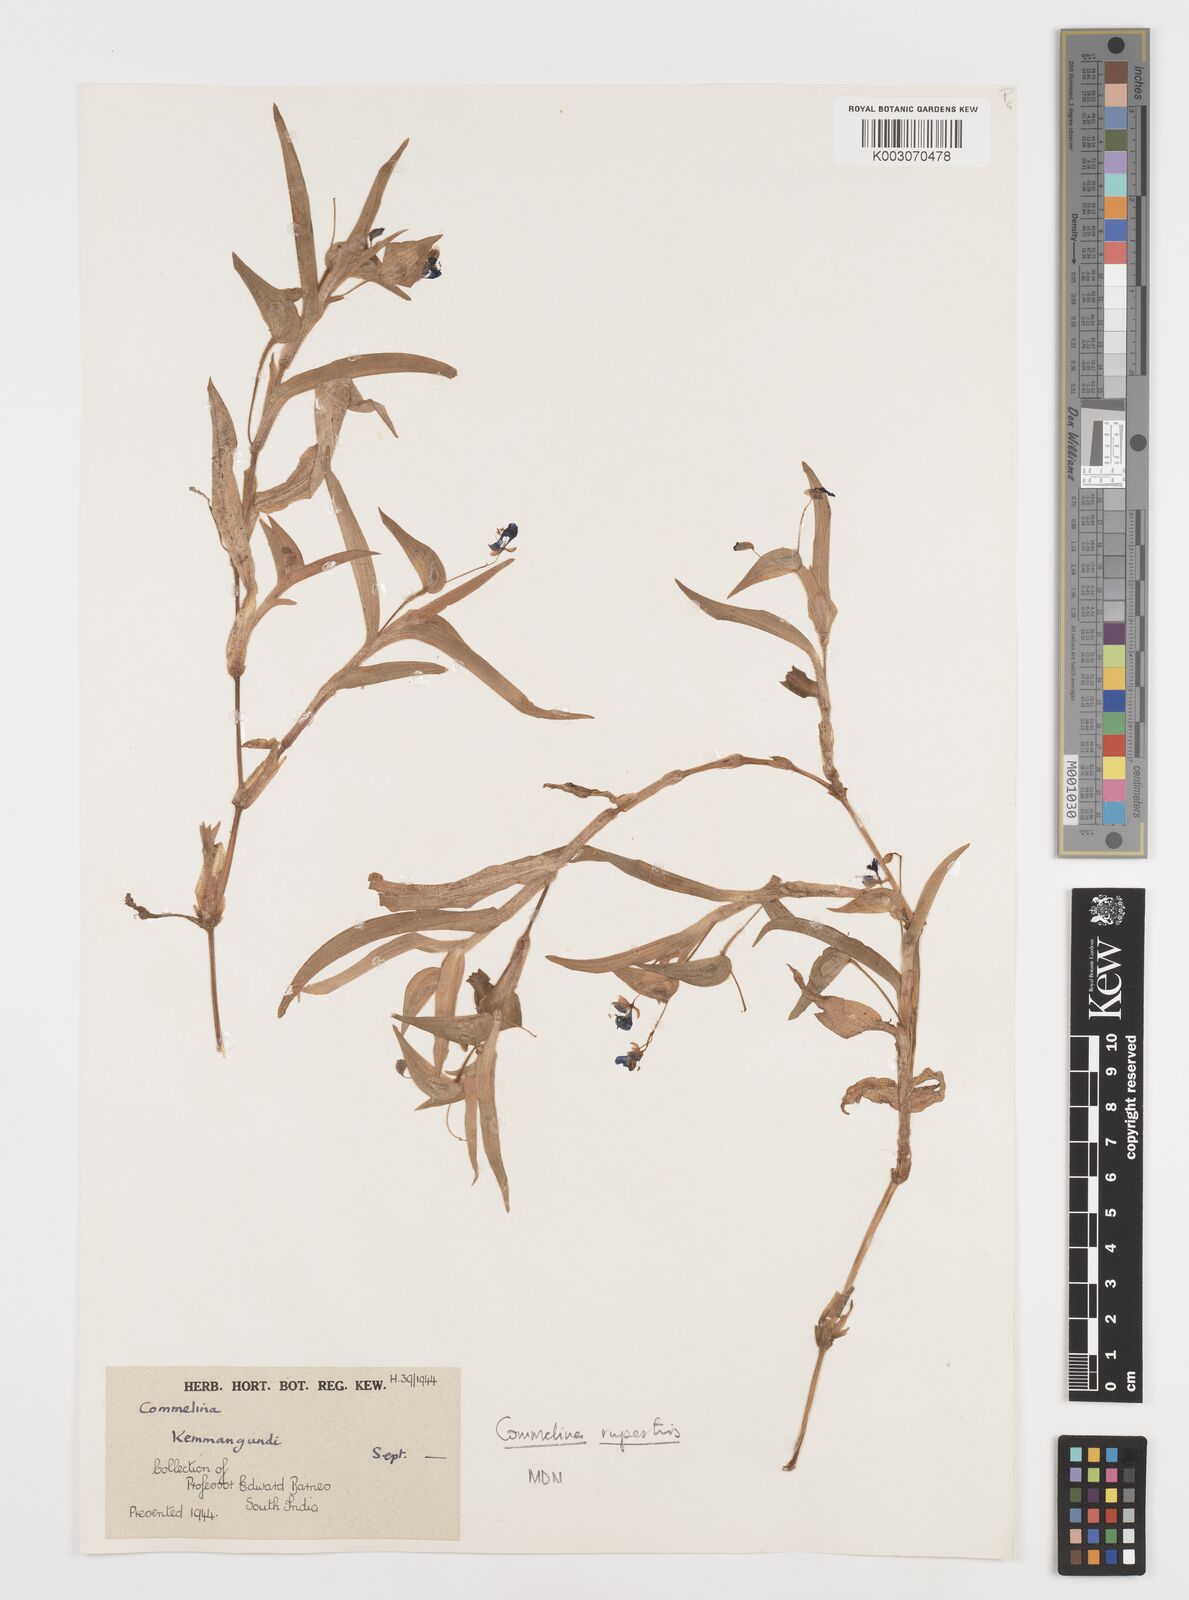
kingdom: Plantae
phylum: Tracheophyta
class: Liliopsida
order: Commelinales
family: Commelinaceae
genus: Commelina
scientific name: Commelina
